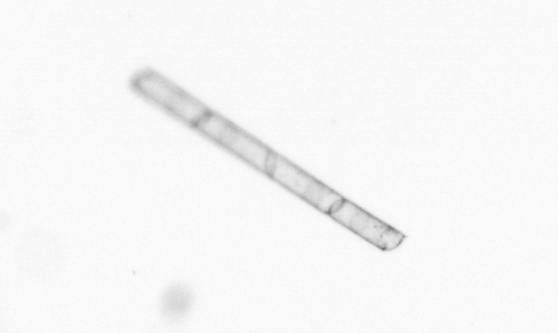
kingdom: Chromista
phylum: Ochrophyta
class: Bacillariophyceae
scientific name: Bacillariophyceae
